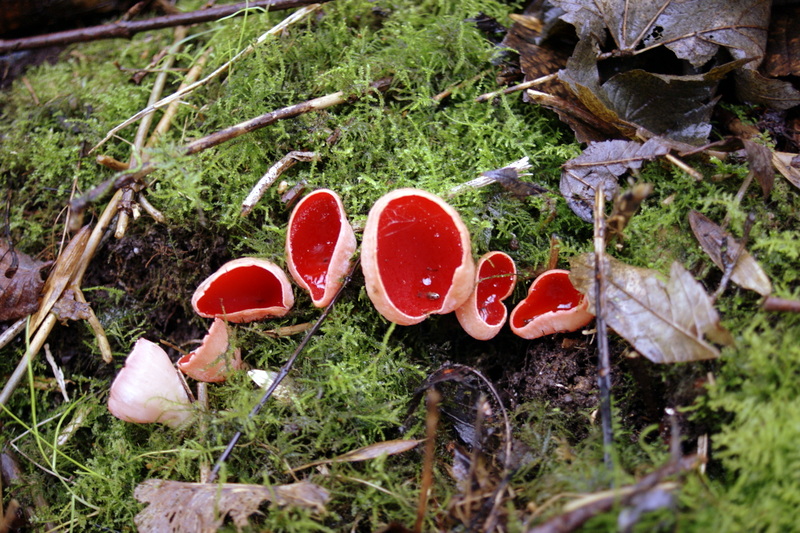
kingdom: Fungi
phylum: Ascomycota
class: Pezizomycetes
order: Pezizales
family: Sarcoscyphaceae
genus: Sarcoscypha
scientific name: Sarcoscypha austriaca
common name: krølhåret pragtbæger
